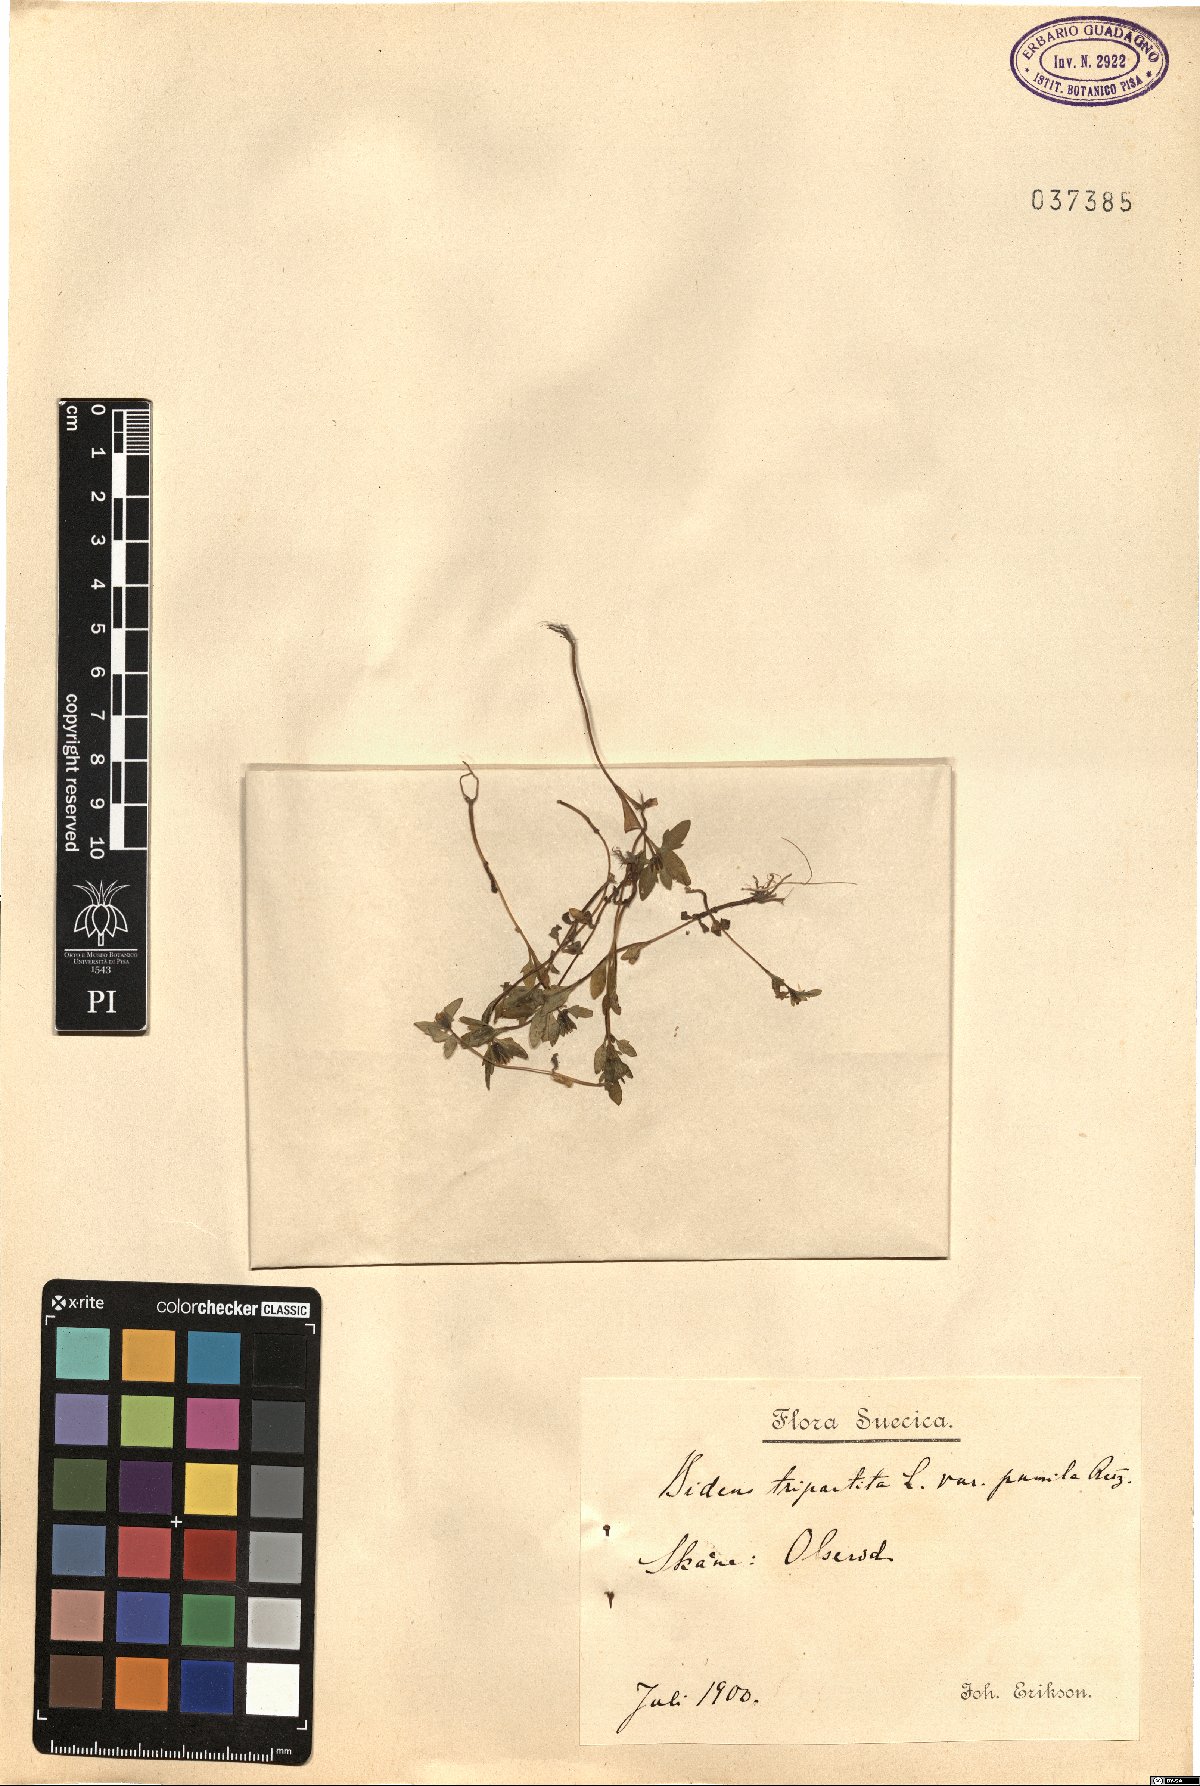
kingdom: Plantae
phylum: Tracheophyta
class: Magnoliopsida
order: Asterales
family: Asteraceae
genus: Bidens
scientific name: Bidens tripartita
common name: Trifid bur-marigold
